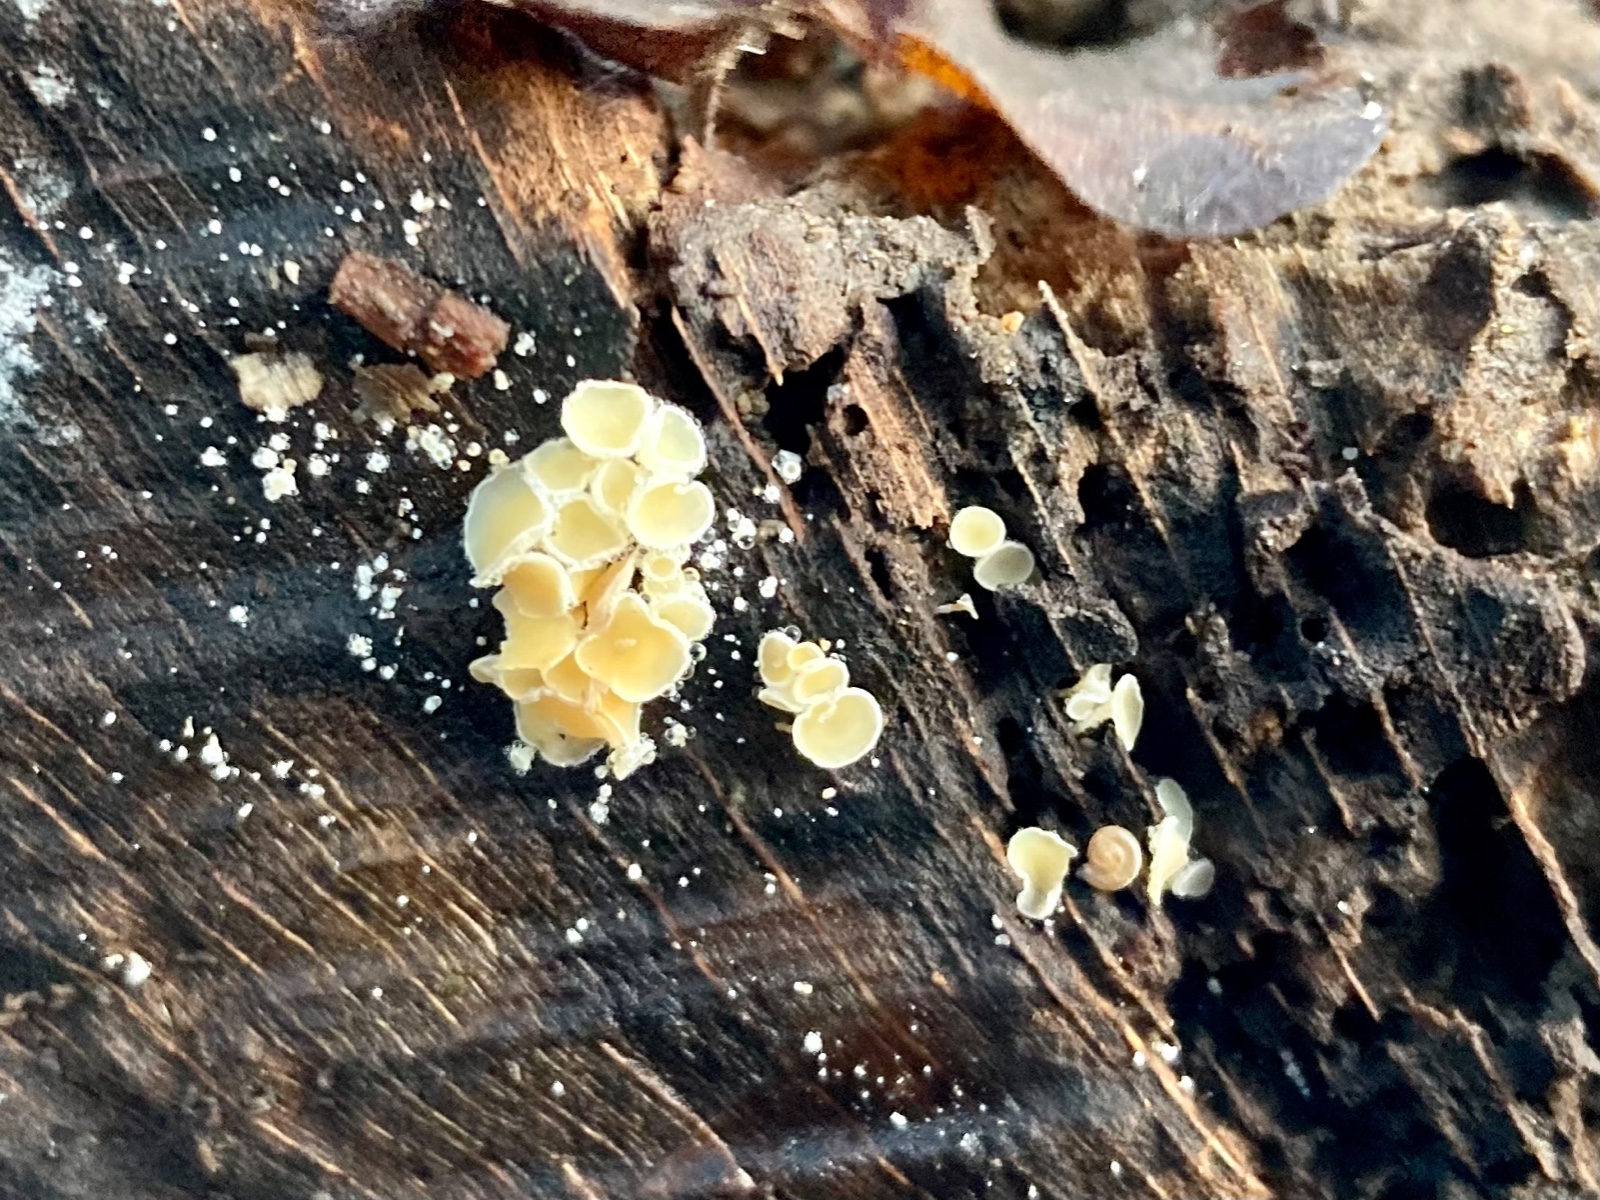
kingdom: Fungi
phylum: Ascomycota
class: Leotiomycetes
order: Helotiales
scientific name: Helotiales
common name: stilkskiveordenen
